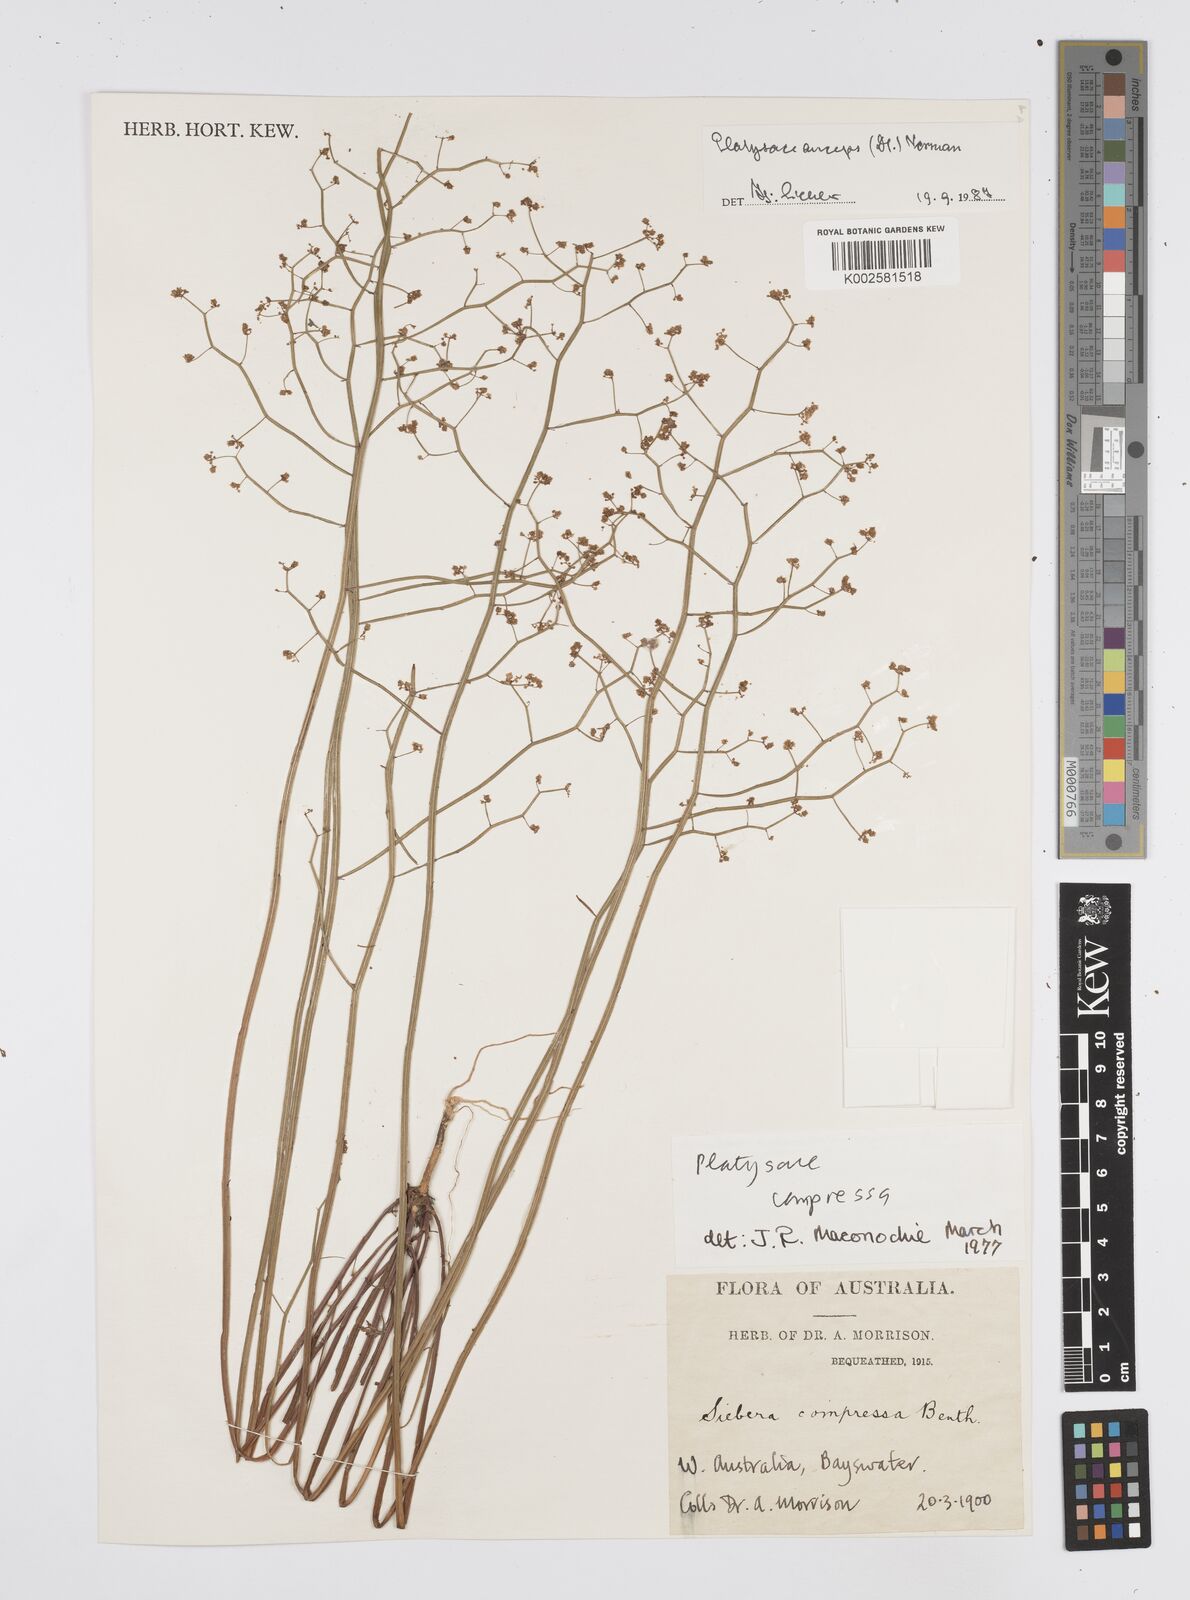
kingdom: Plantae
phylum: Tracheophyta
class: Magnoliopsida
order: Apiales
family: Apiaceae
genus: Centella
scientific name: Centella
